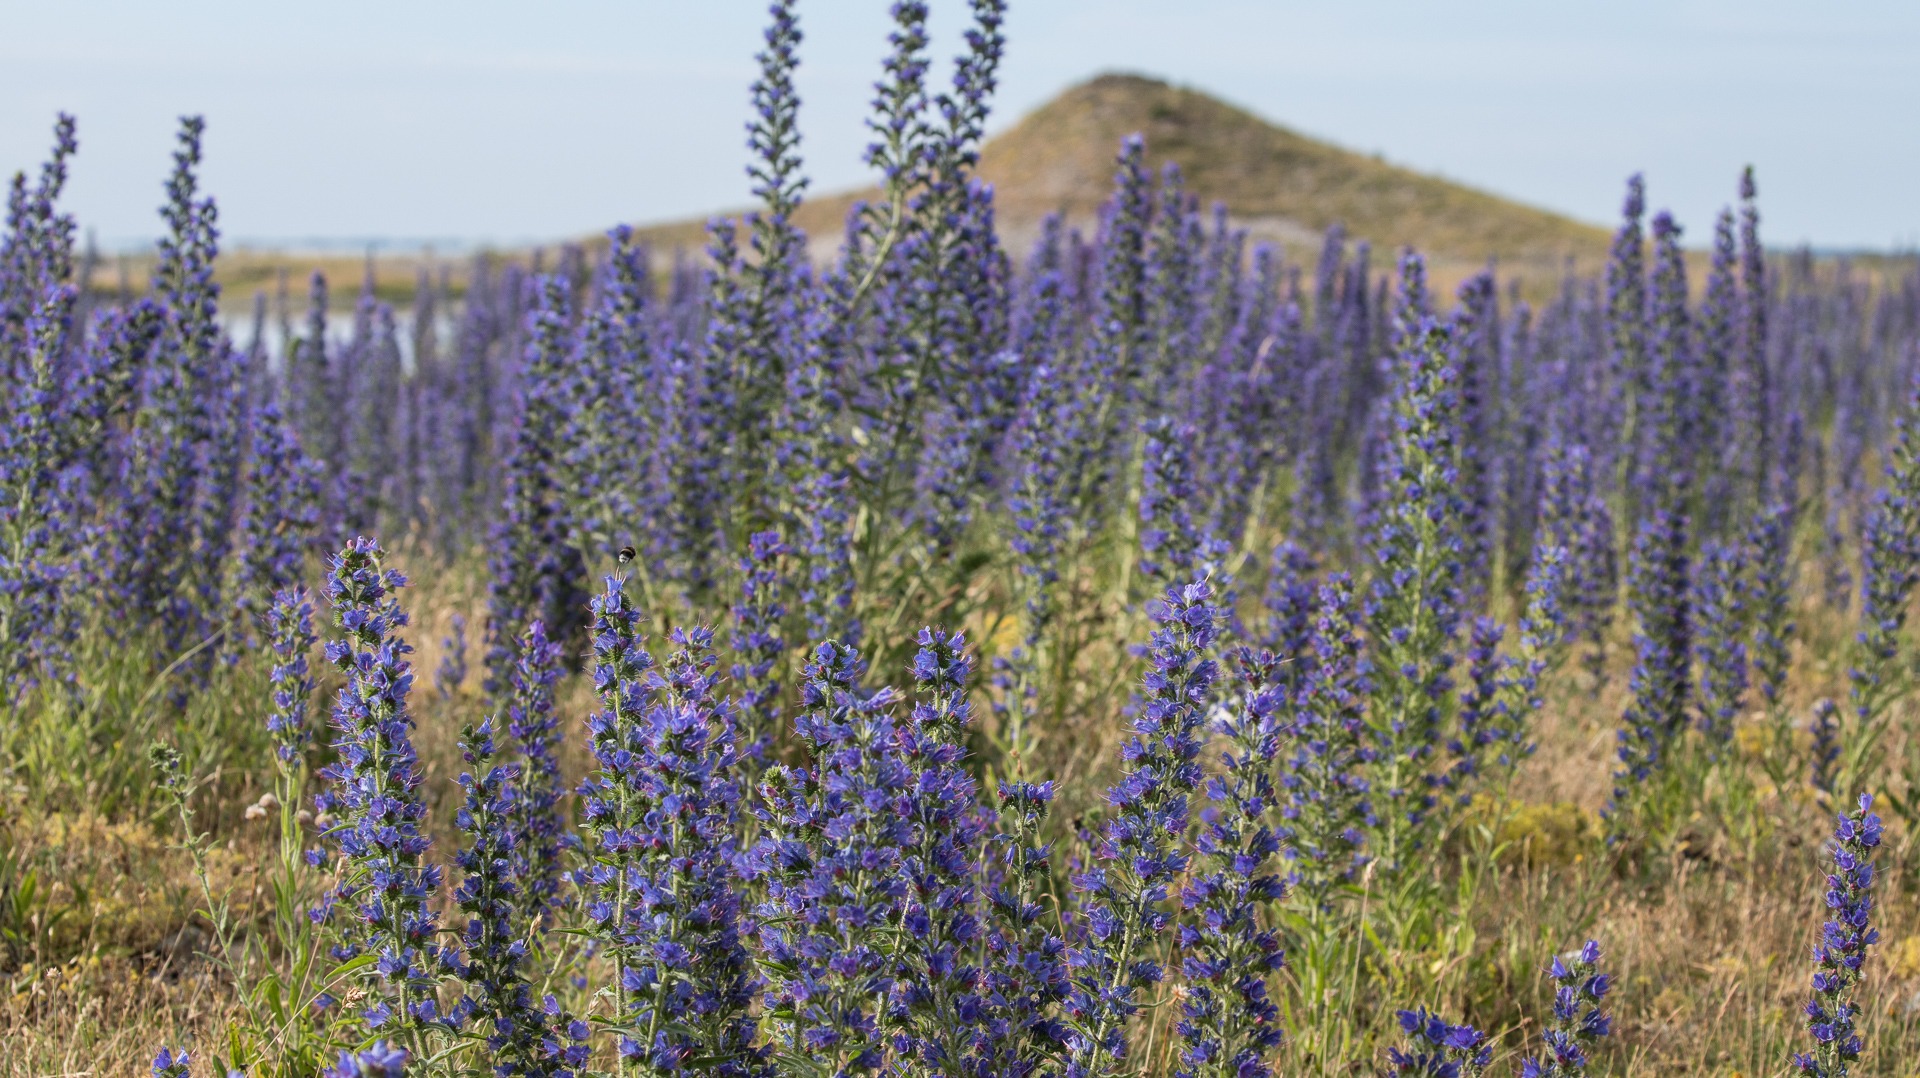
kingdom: Plantae
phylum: Tracheophyta
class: Magnoliopsida
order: Boraginales
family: Boraginaceae
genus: Echium
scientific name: Echium vulgare
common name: Slangehoved
